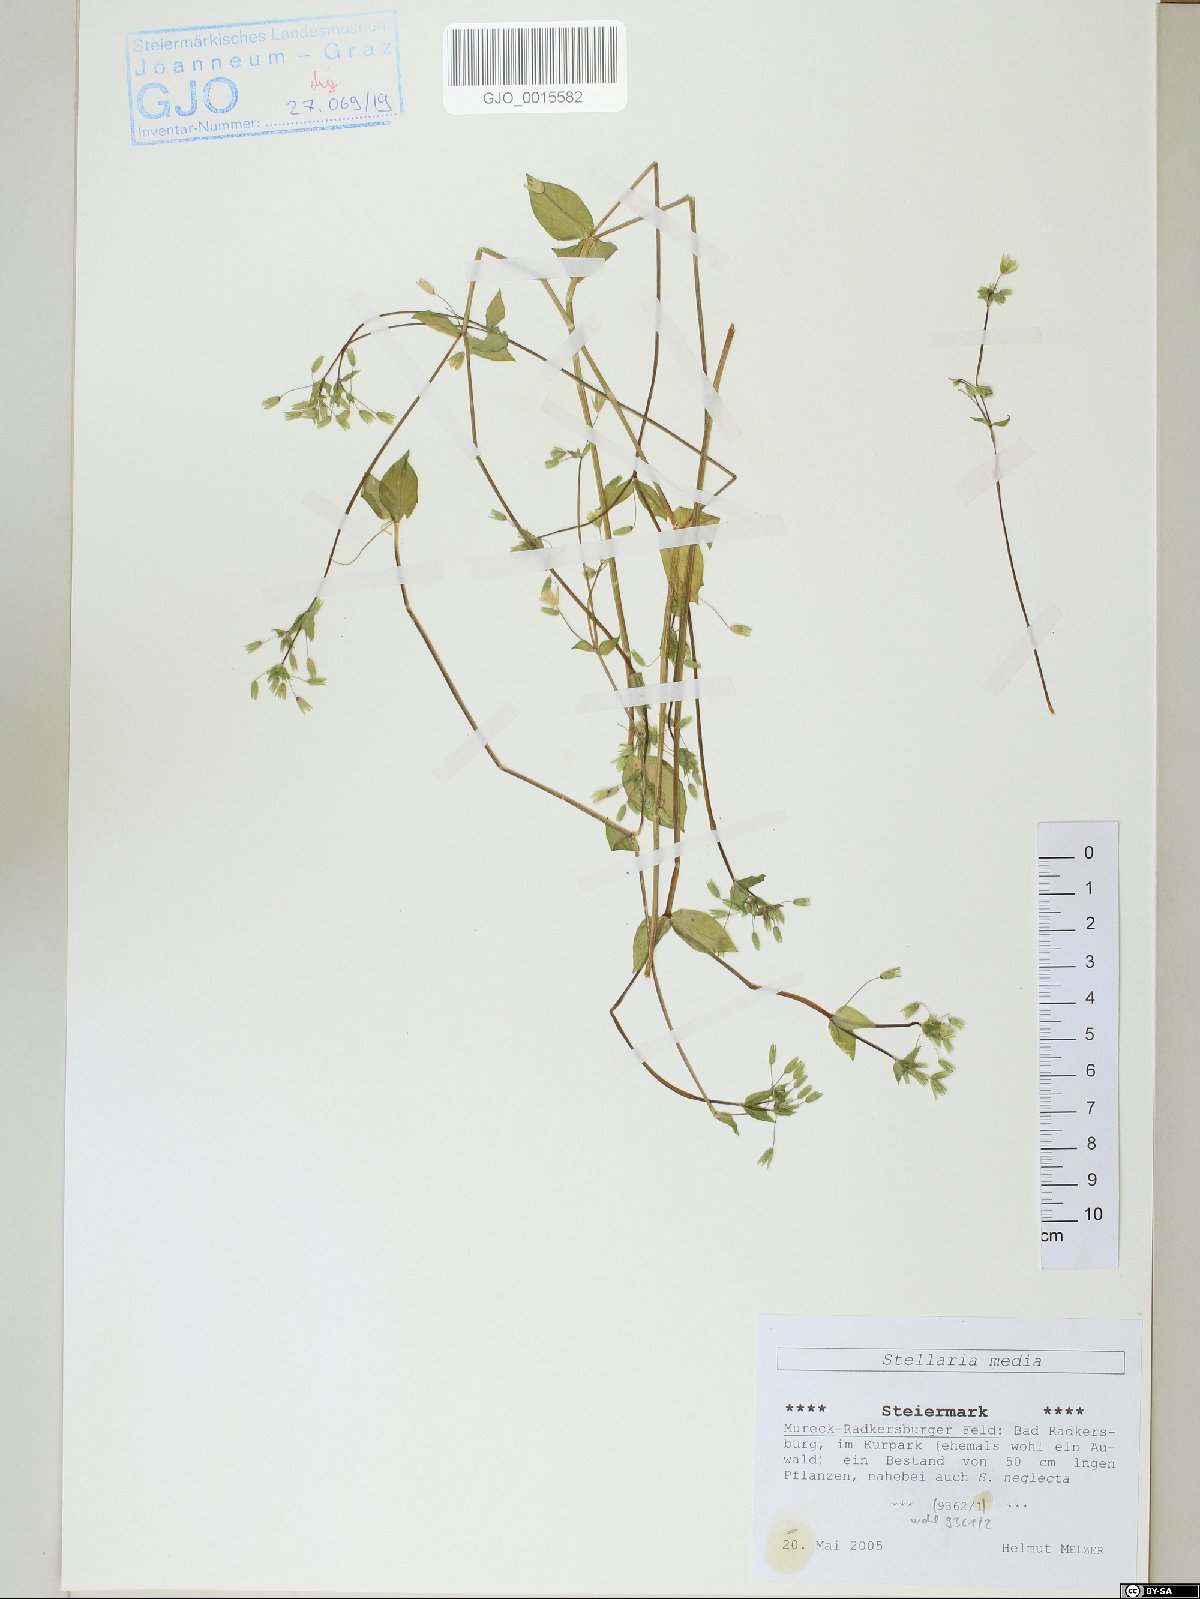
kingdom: Plantae
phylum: Tracheophyta
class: Magnoliopsida
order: Caryophyllales
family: Caryophyllaceae
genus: Stellaria
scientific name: Stellaria media
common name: Common chickweed
